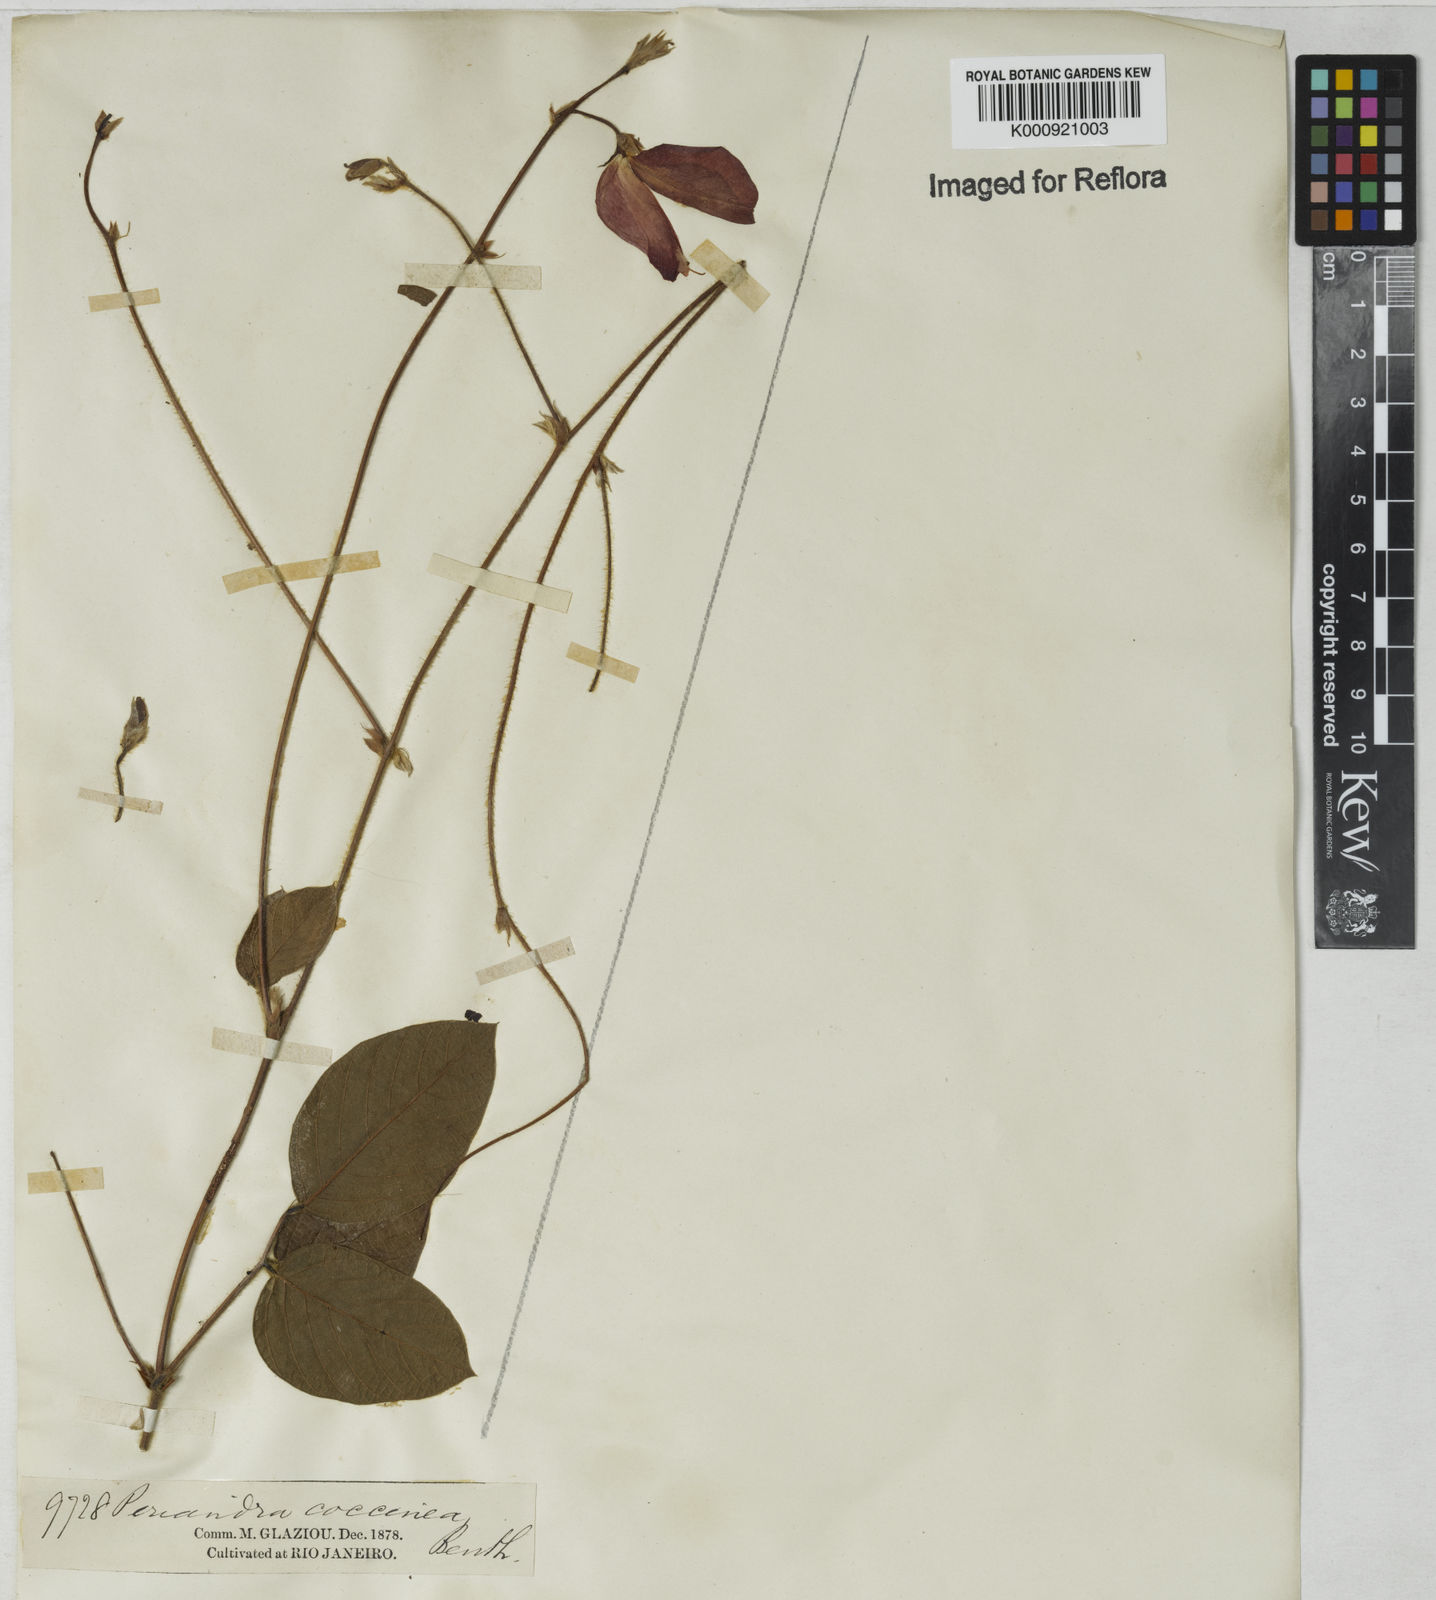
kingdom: Plantae
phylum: Tracheophyta
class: Magnoliopsida
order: Fabales
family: Fabaceae
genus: Periandra
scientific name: Periandra coccinea
